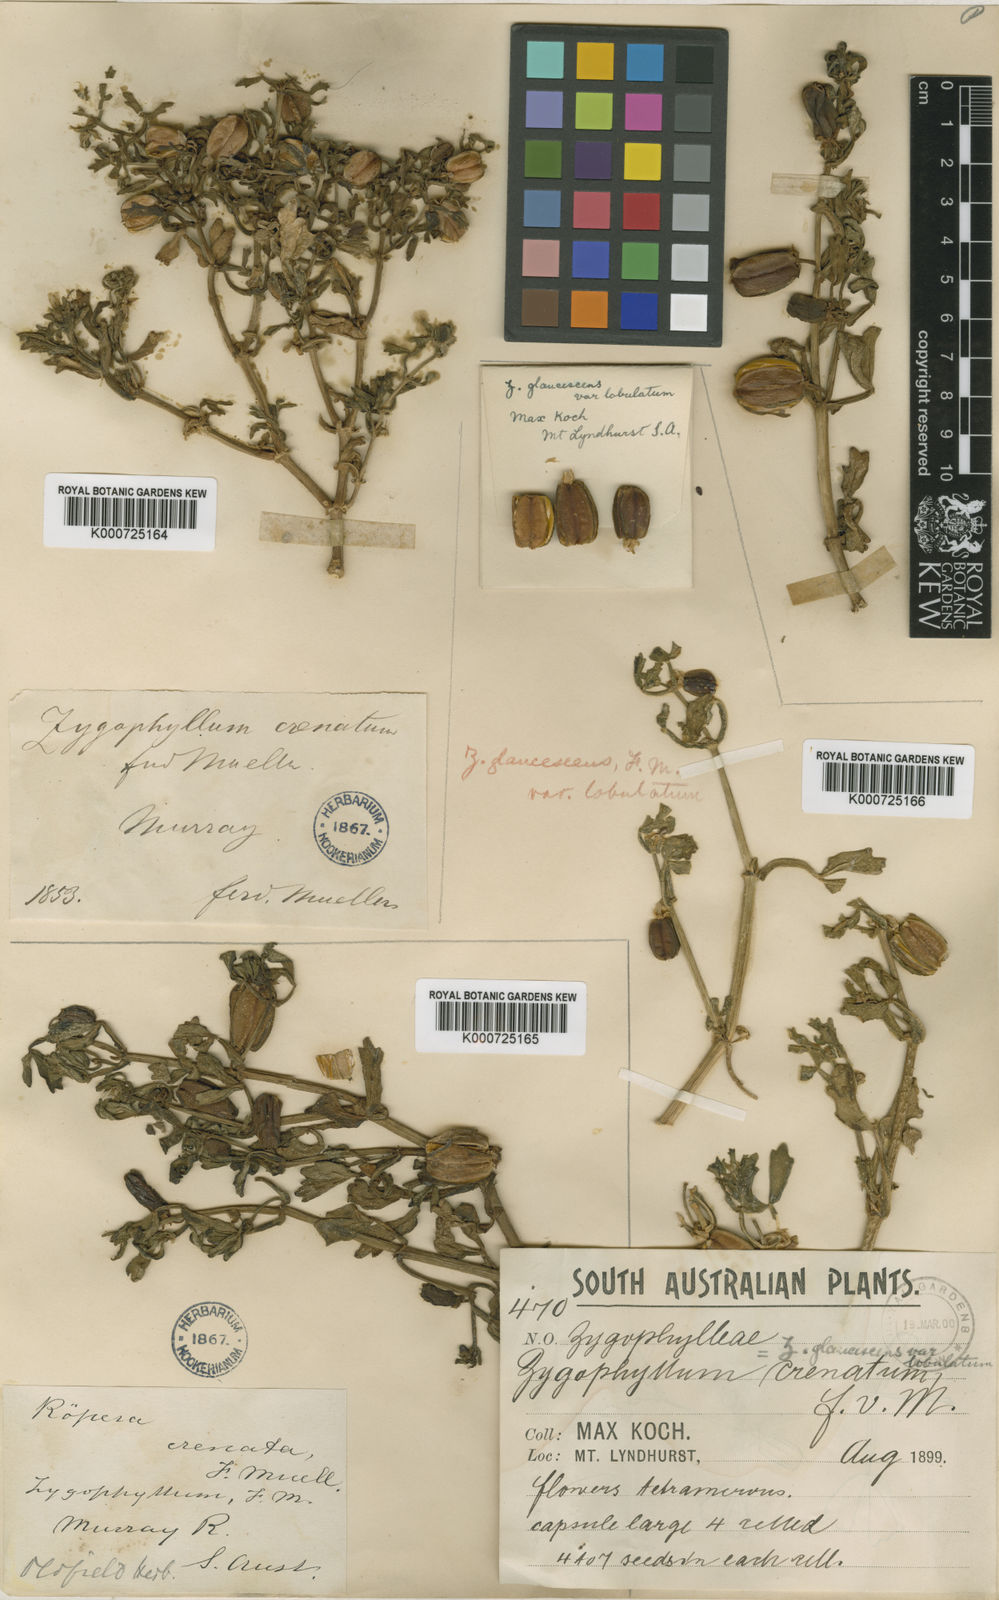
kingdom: Plantae
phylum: Tracheophyta
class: Magnoliopsida
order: Zygophyllales
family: Zygophyllaceae
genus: Roepera
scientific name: Roepera crenata
